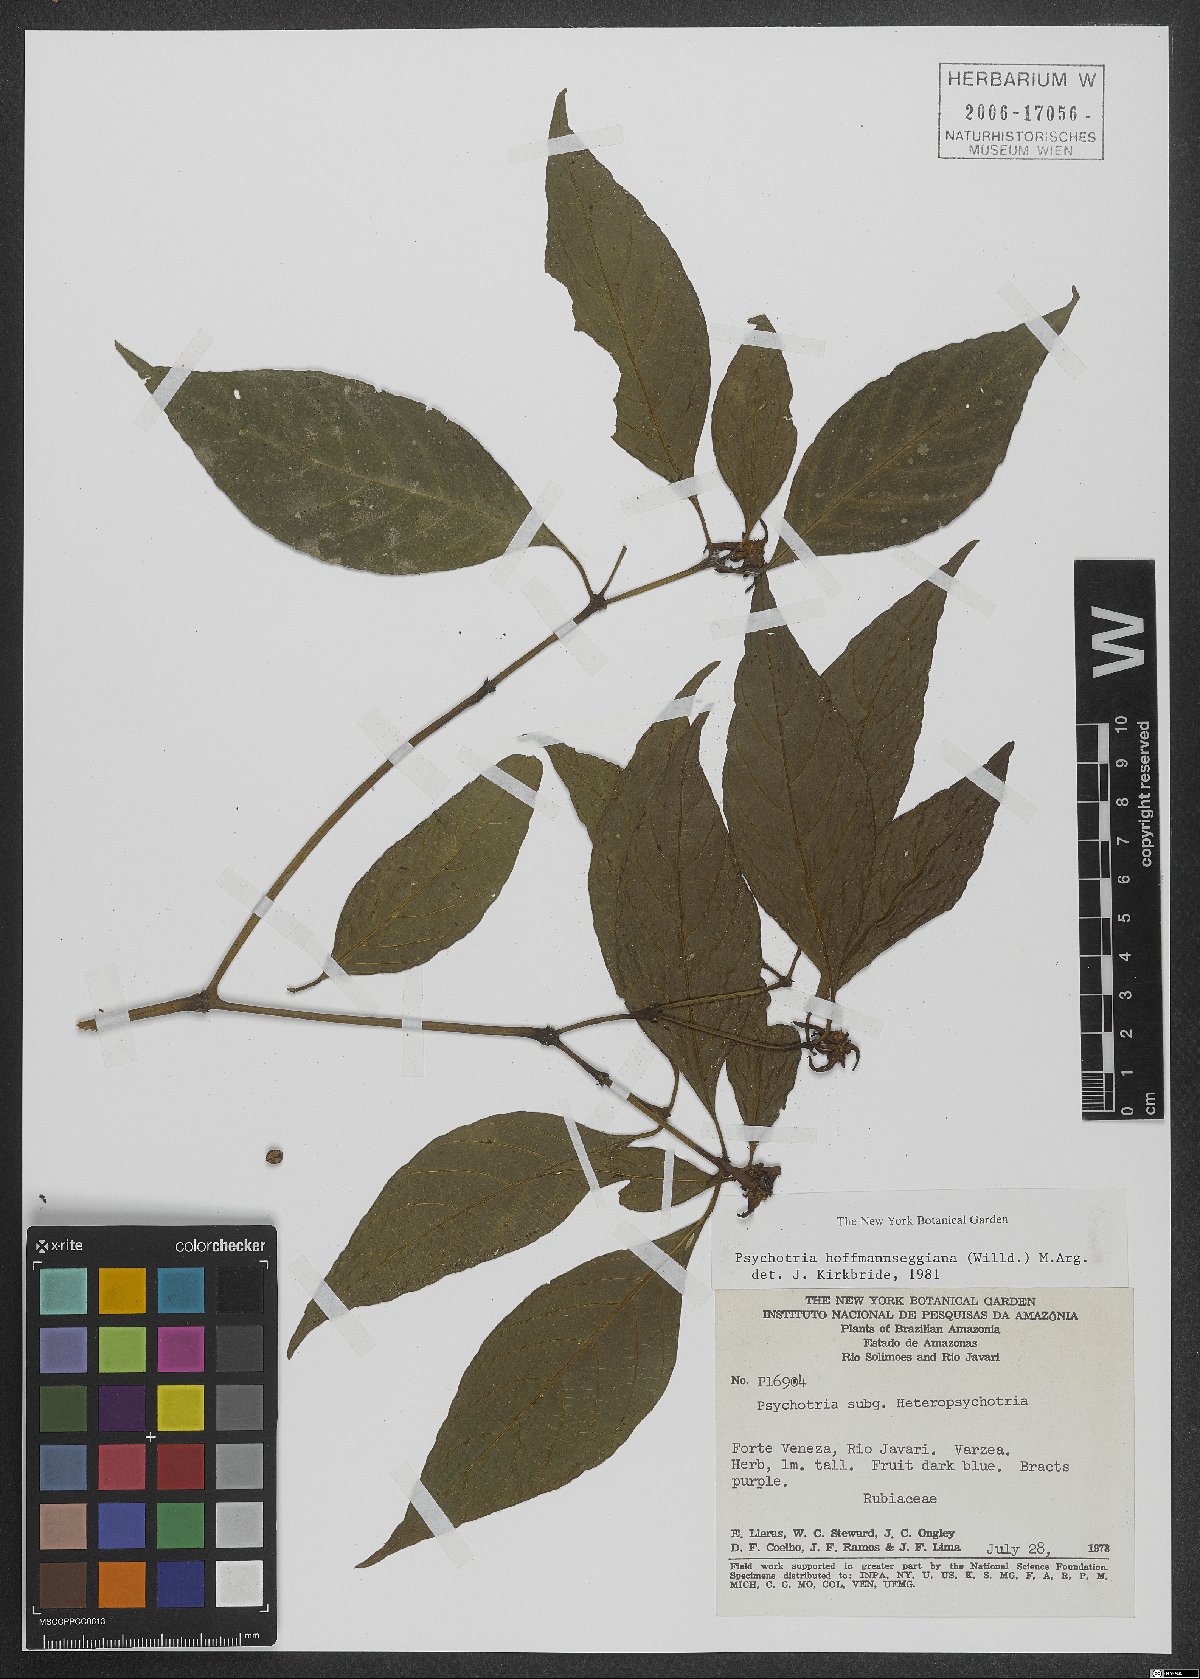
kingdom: Plantae
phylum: Tracheophyta
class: Magnoliopsida
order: Gentianales
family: Rubiaceae
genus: Palicourea
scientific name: Palicourea hoffmannseggiana
